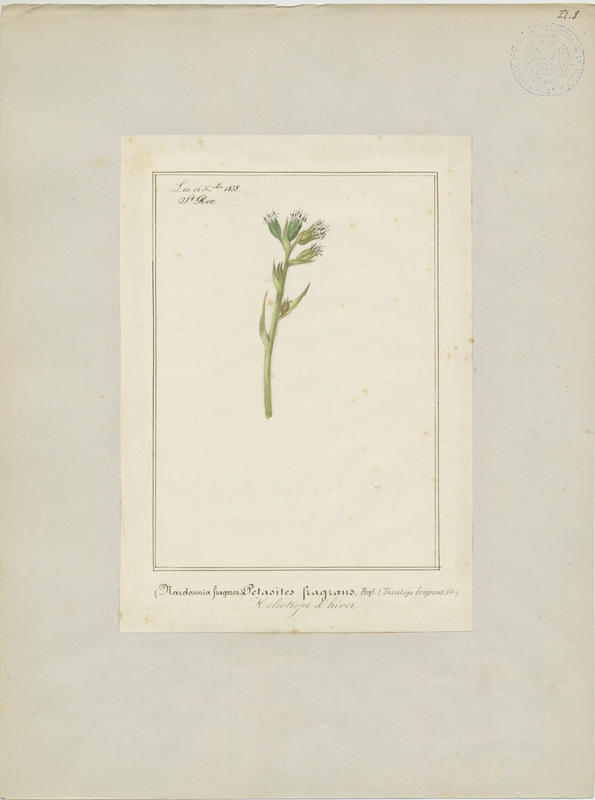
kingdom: Plantae
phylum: Tracheophyta
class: Magnoliopsida
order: Asterales
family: Asteraceae
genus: Petasites
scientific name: Petasites pyrenaicus
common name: Winter heliotrope
